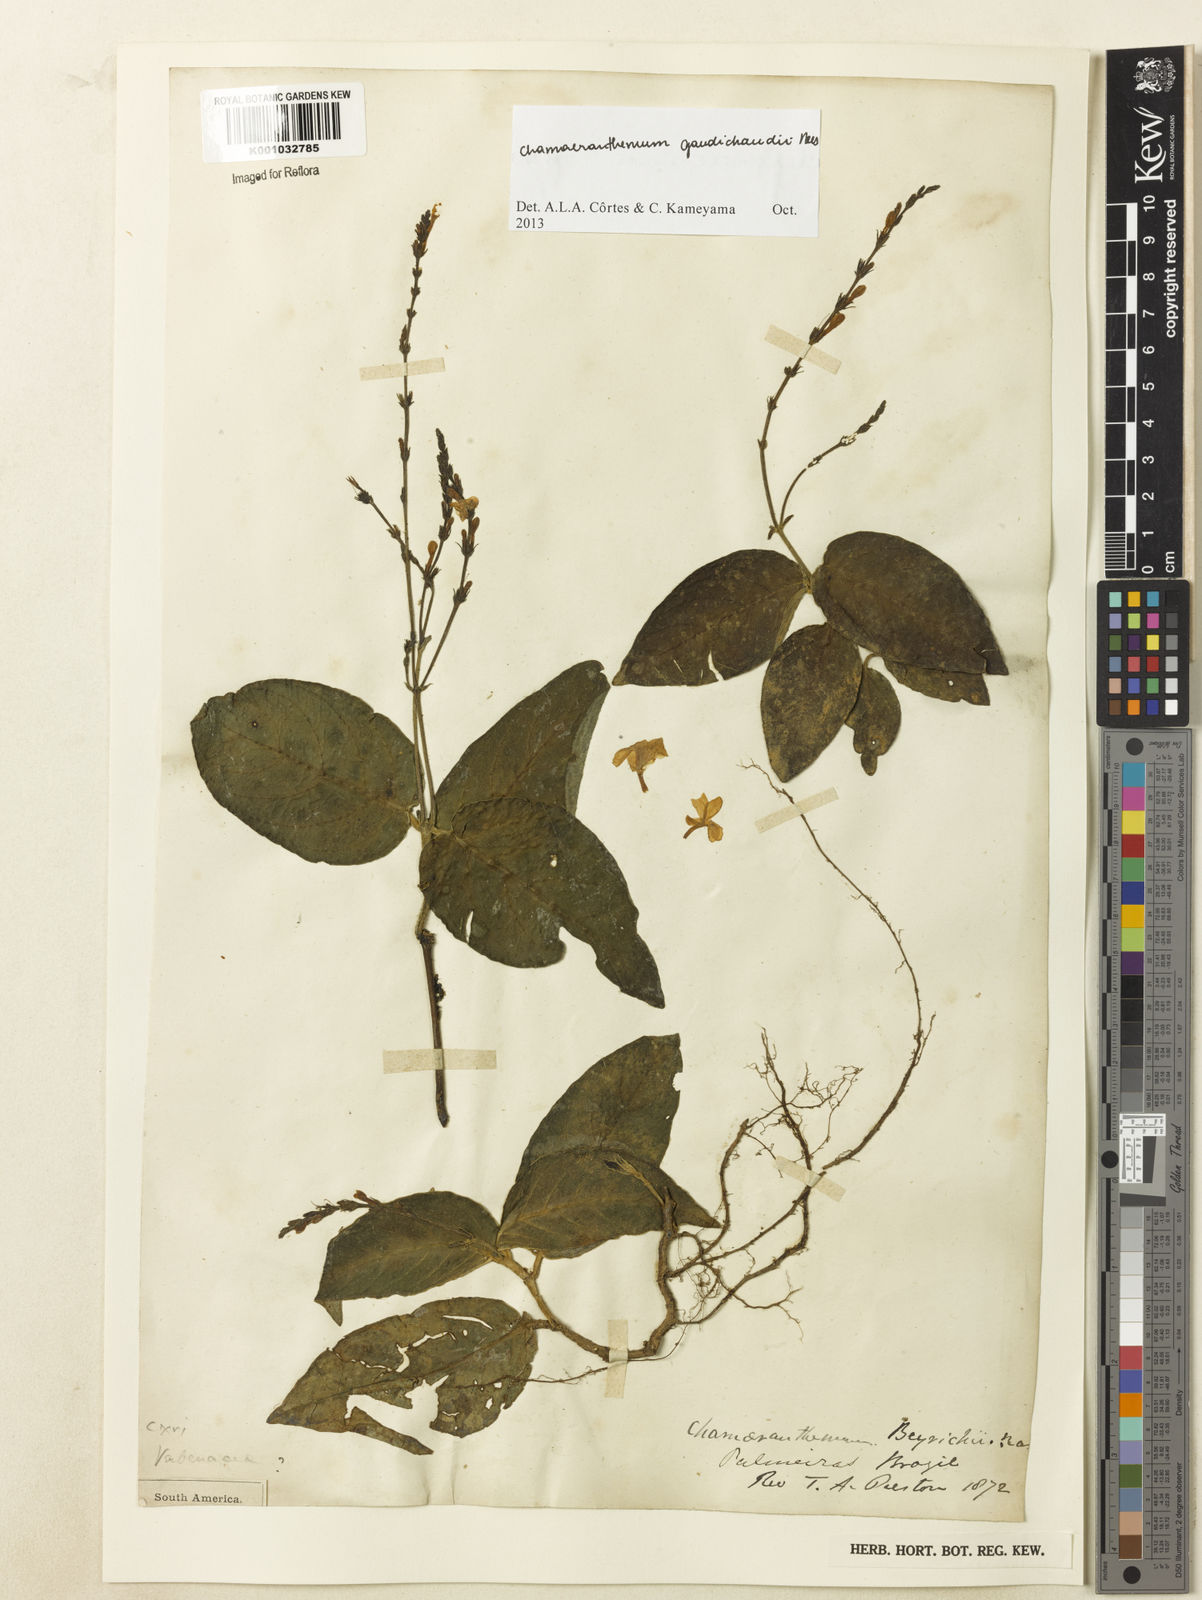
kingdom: Plantae
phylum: Tracheophyta
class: Magnoliopsida
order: Lamiales
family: Acanthaceae
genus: Chamaeranthemum
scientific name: Chamaeranthemum beyrichii
